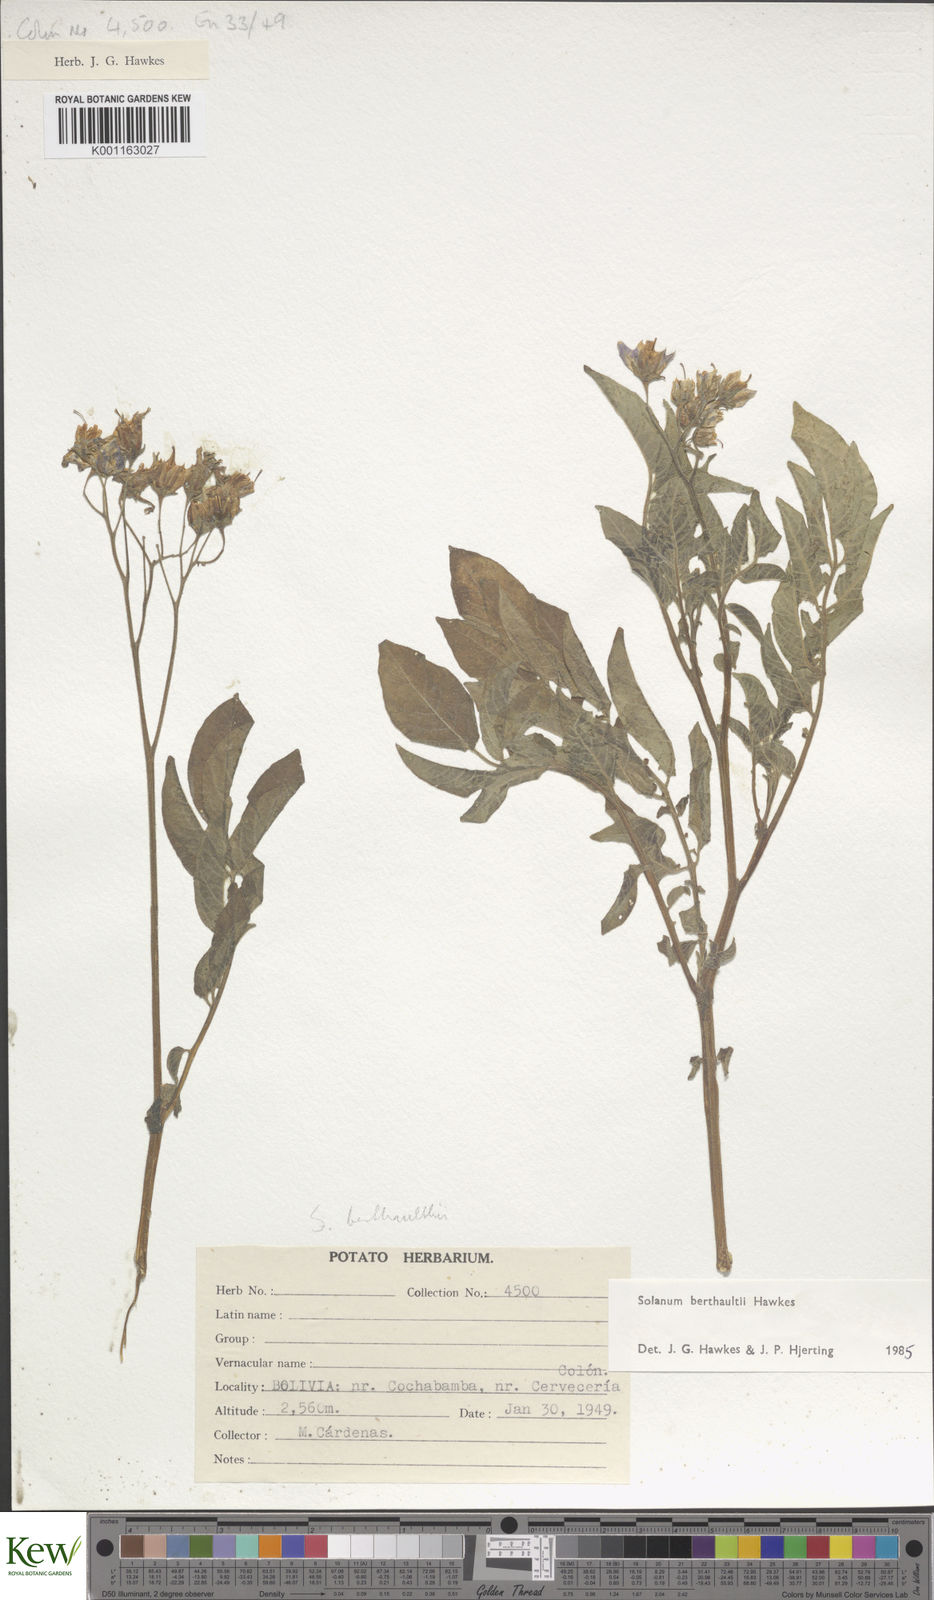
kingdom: Plantae
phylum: Tracheophyta
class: Magnoliopsida
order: Solanales
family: Solanaceae
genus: Solanum
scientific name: Solanum berthaultii
